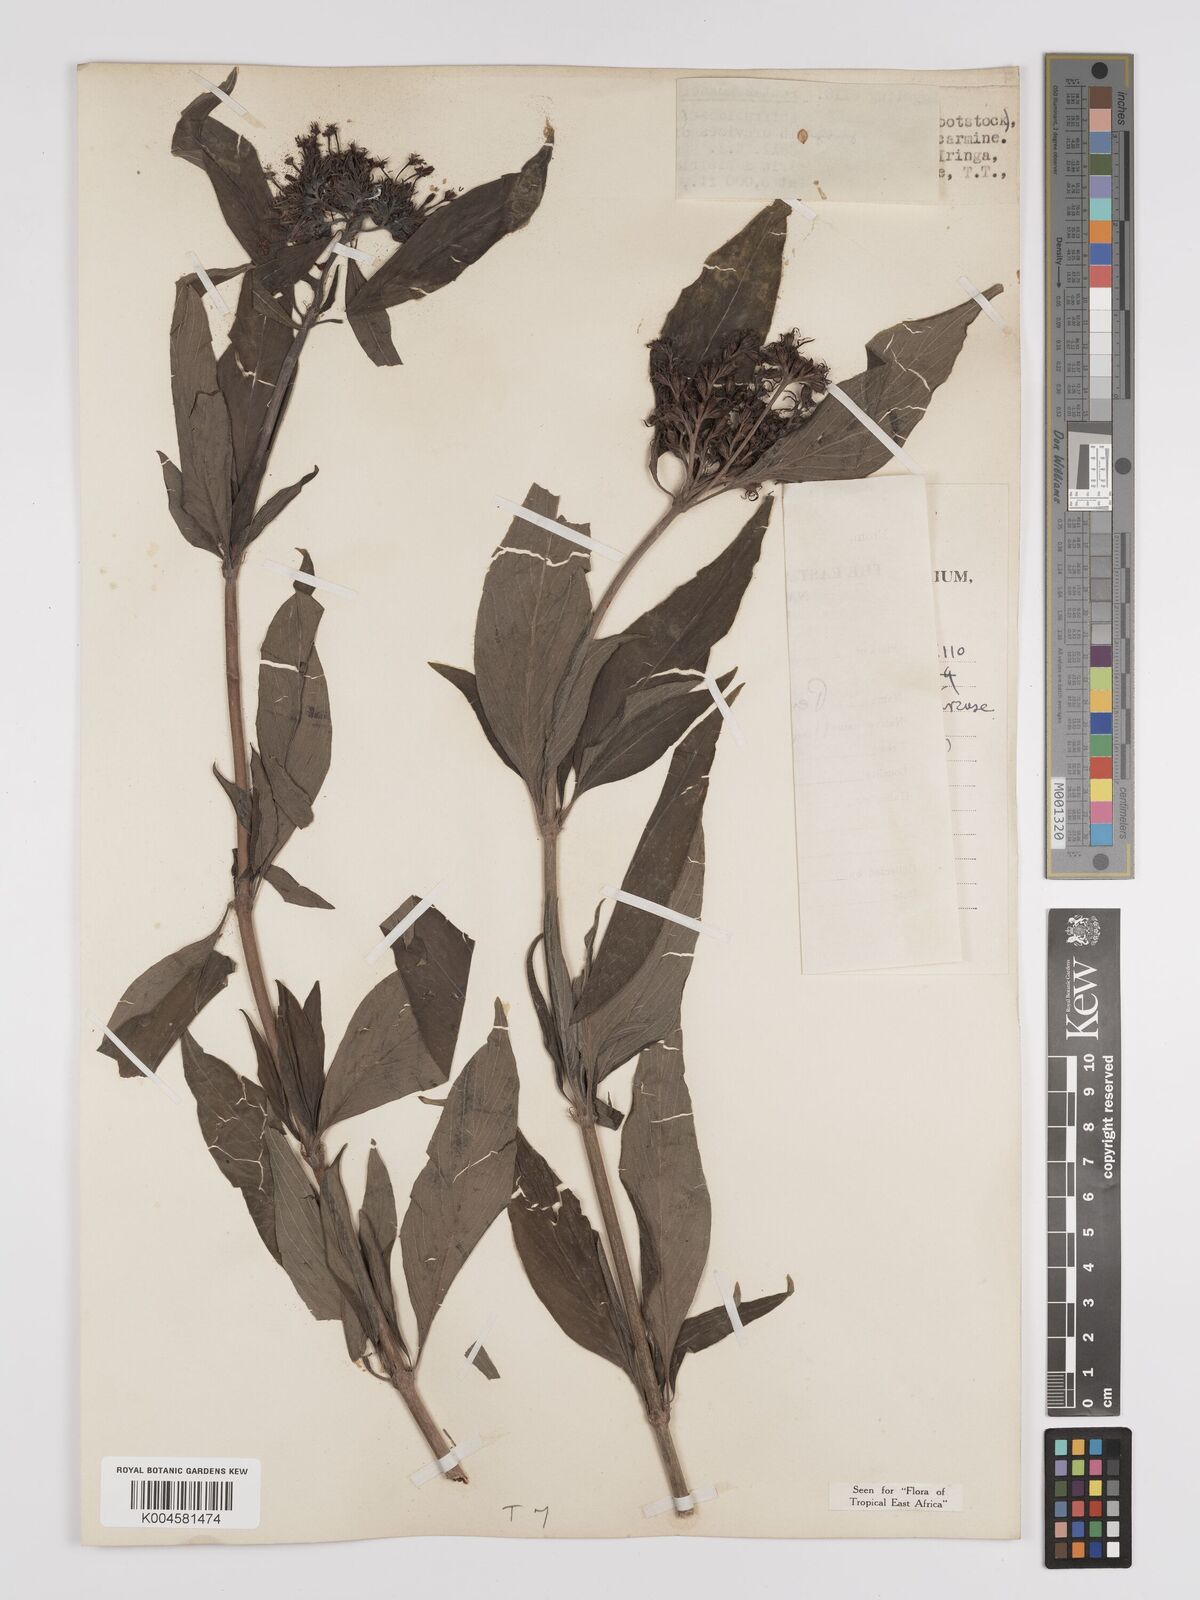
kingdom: Plantae
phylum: Tracheophyta
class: Magnoliopsida
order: Gentianales
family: Rubiaceae
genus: Rhodopentas
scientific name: Rhodopentas bussei
